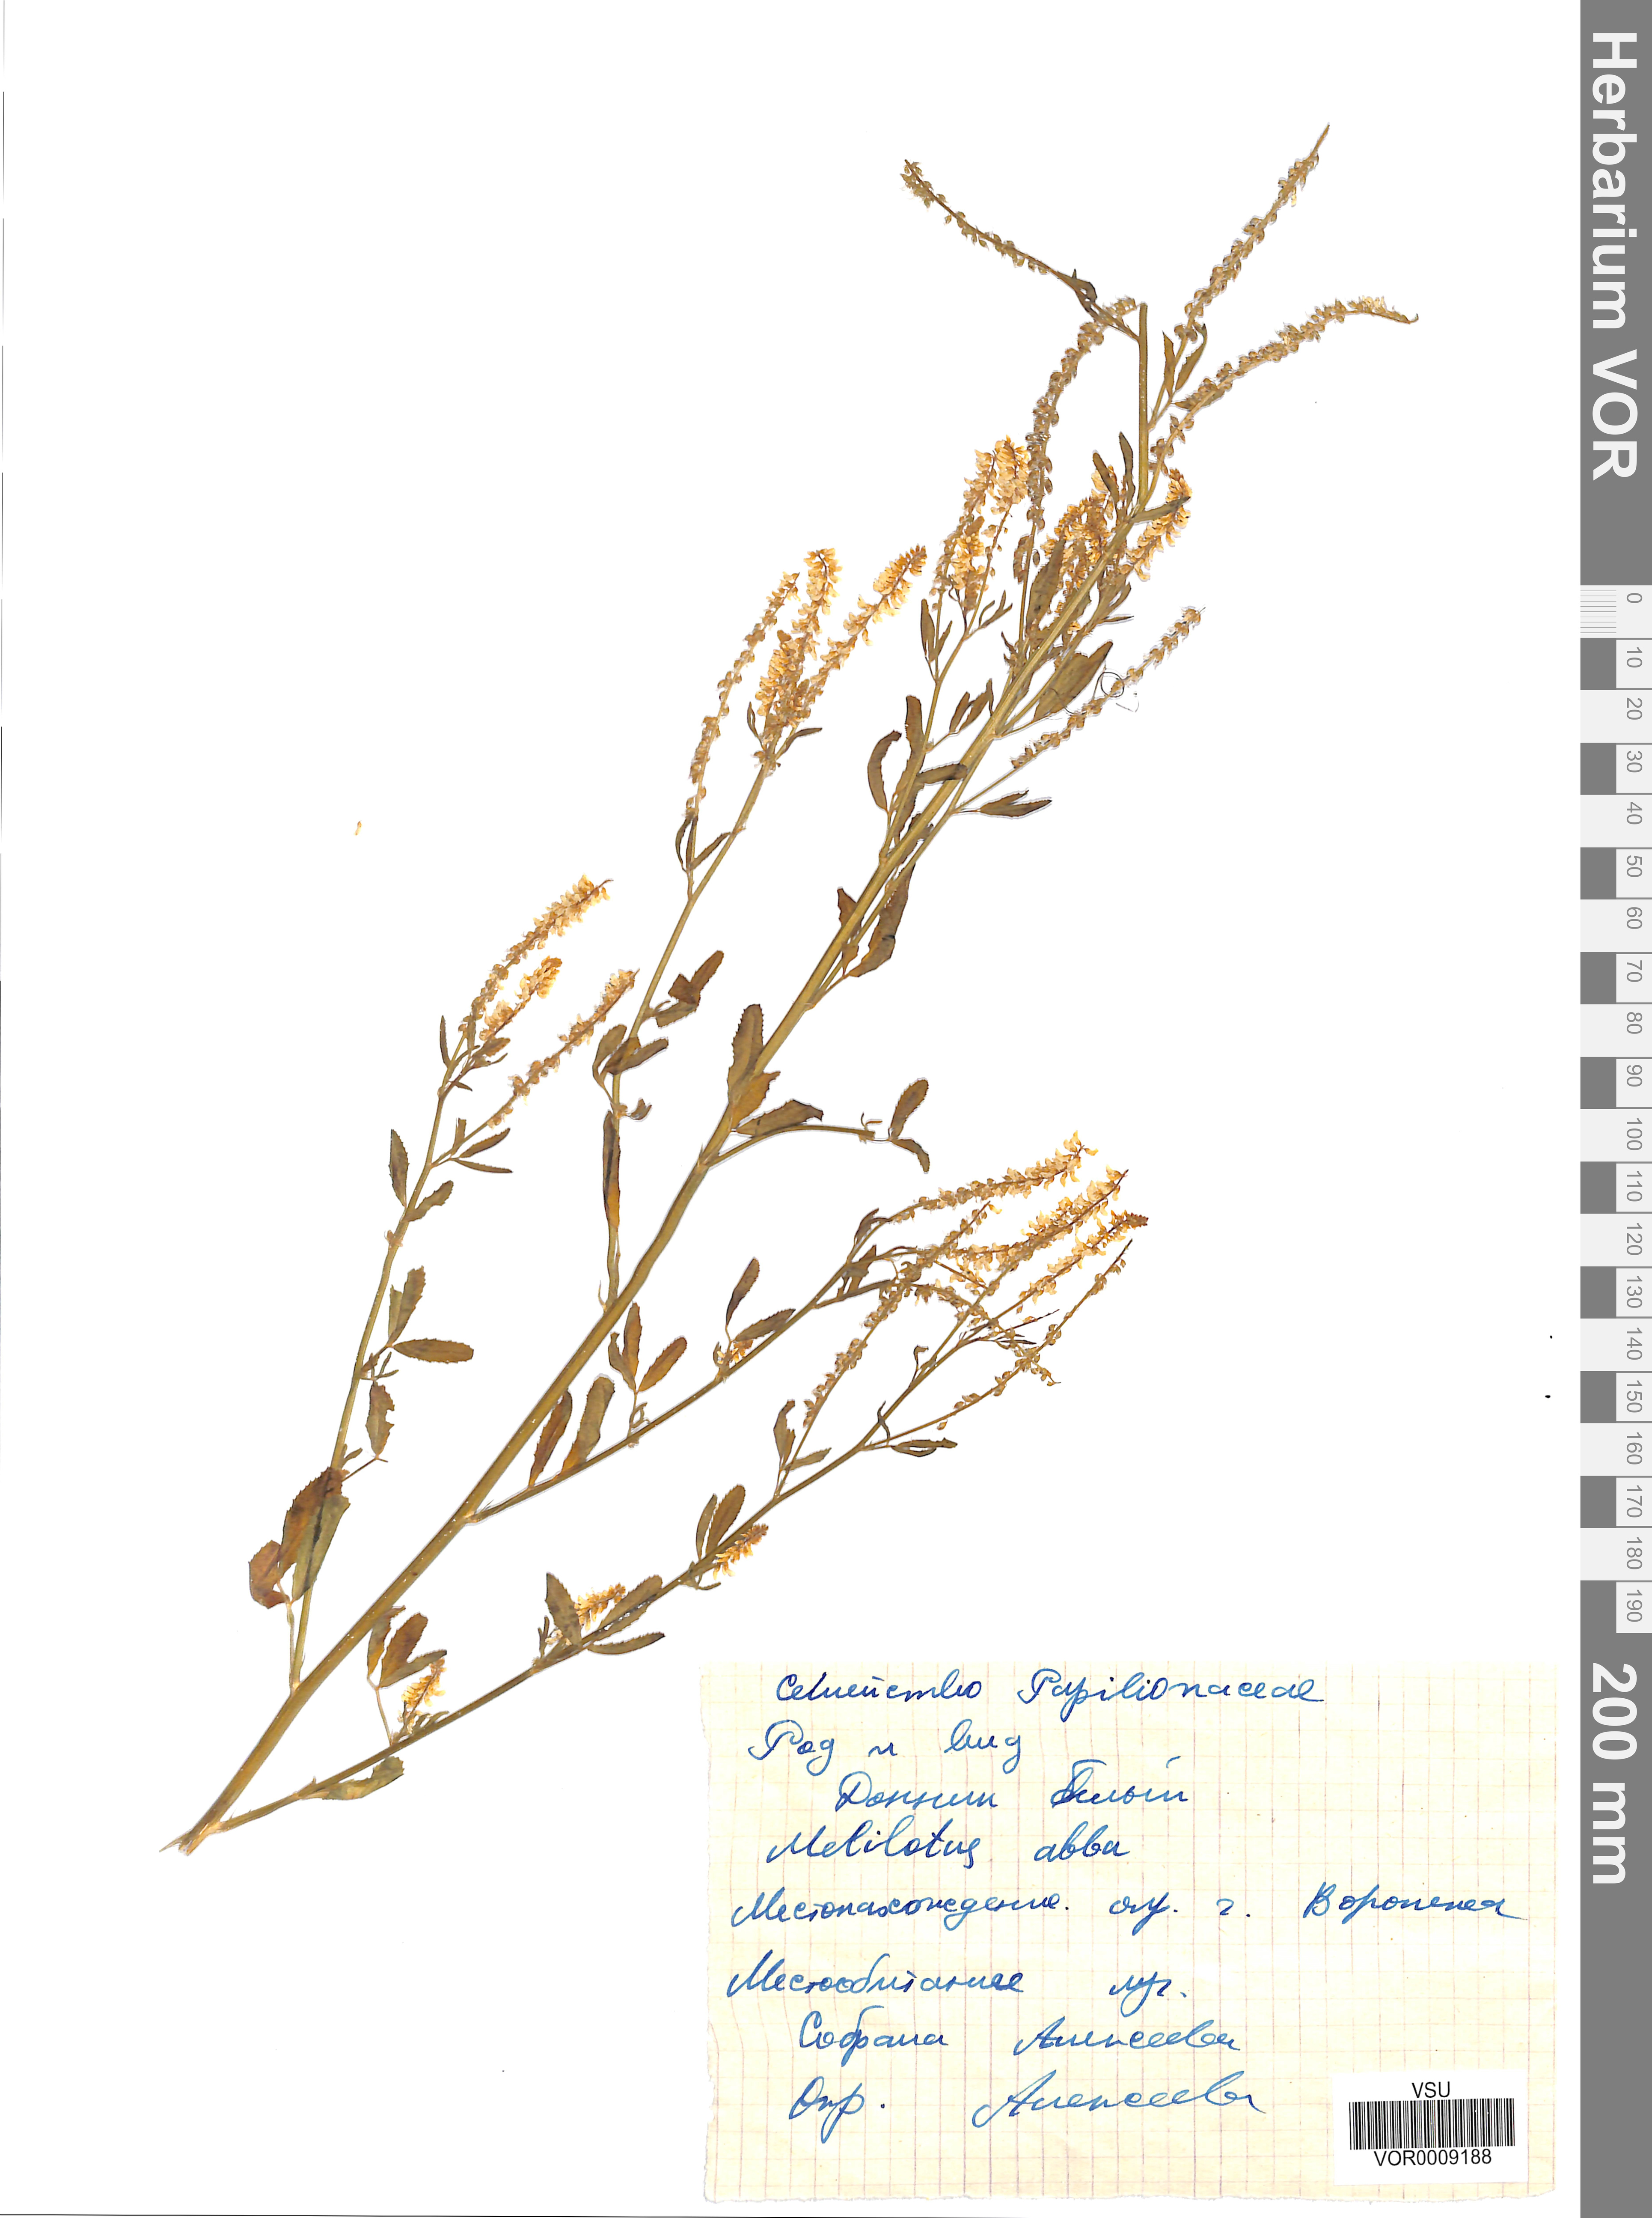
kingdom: Plantae
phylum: Tracheophyta
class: Magnoliopsida
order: Fabales
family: Fabaceae
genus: Melilotus
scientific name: Melilotus albus
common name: White melilot
